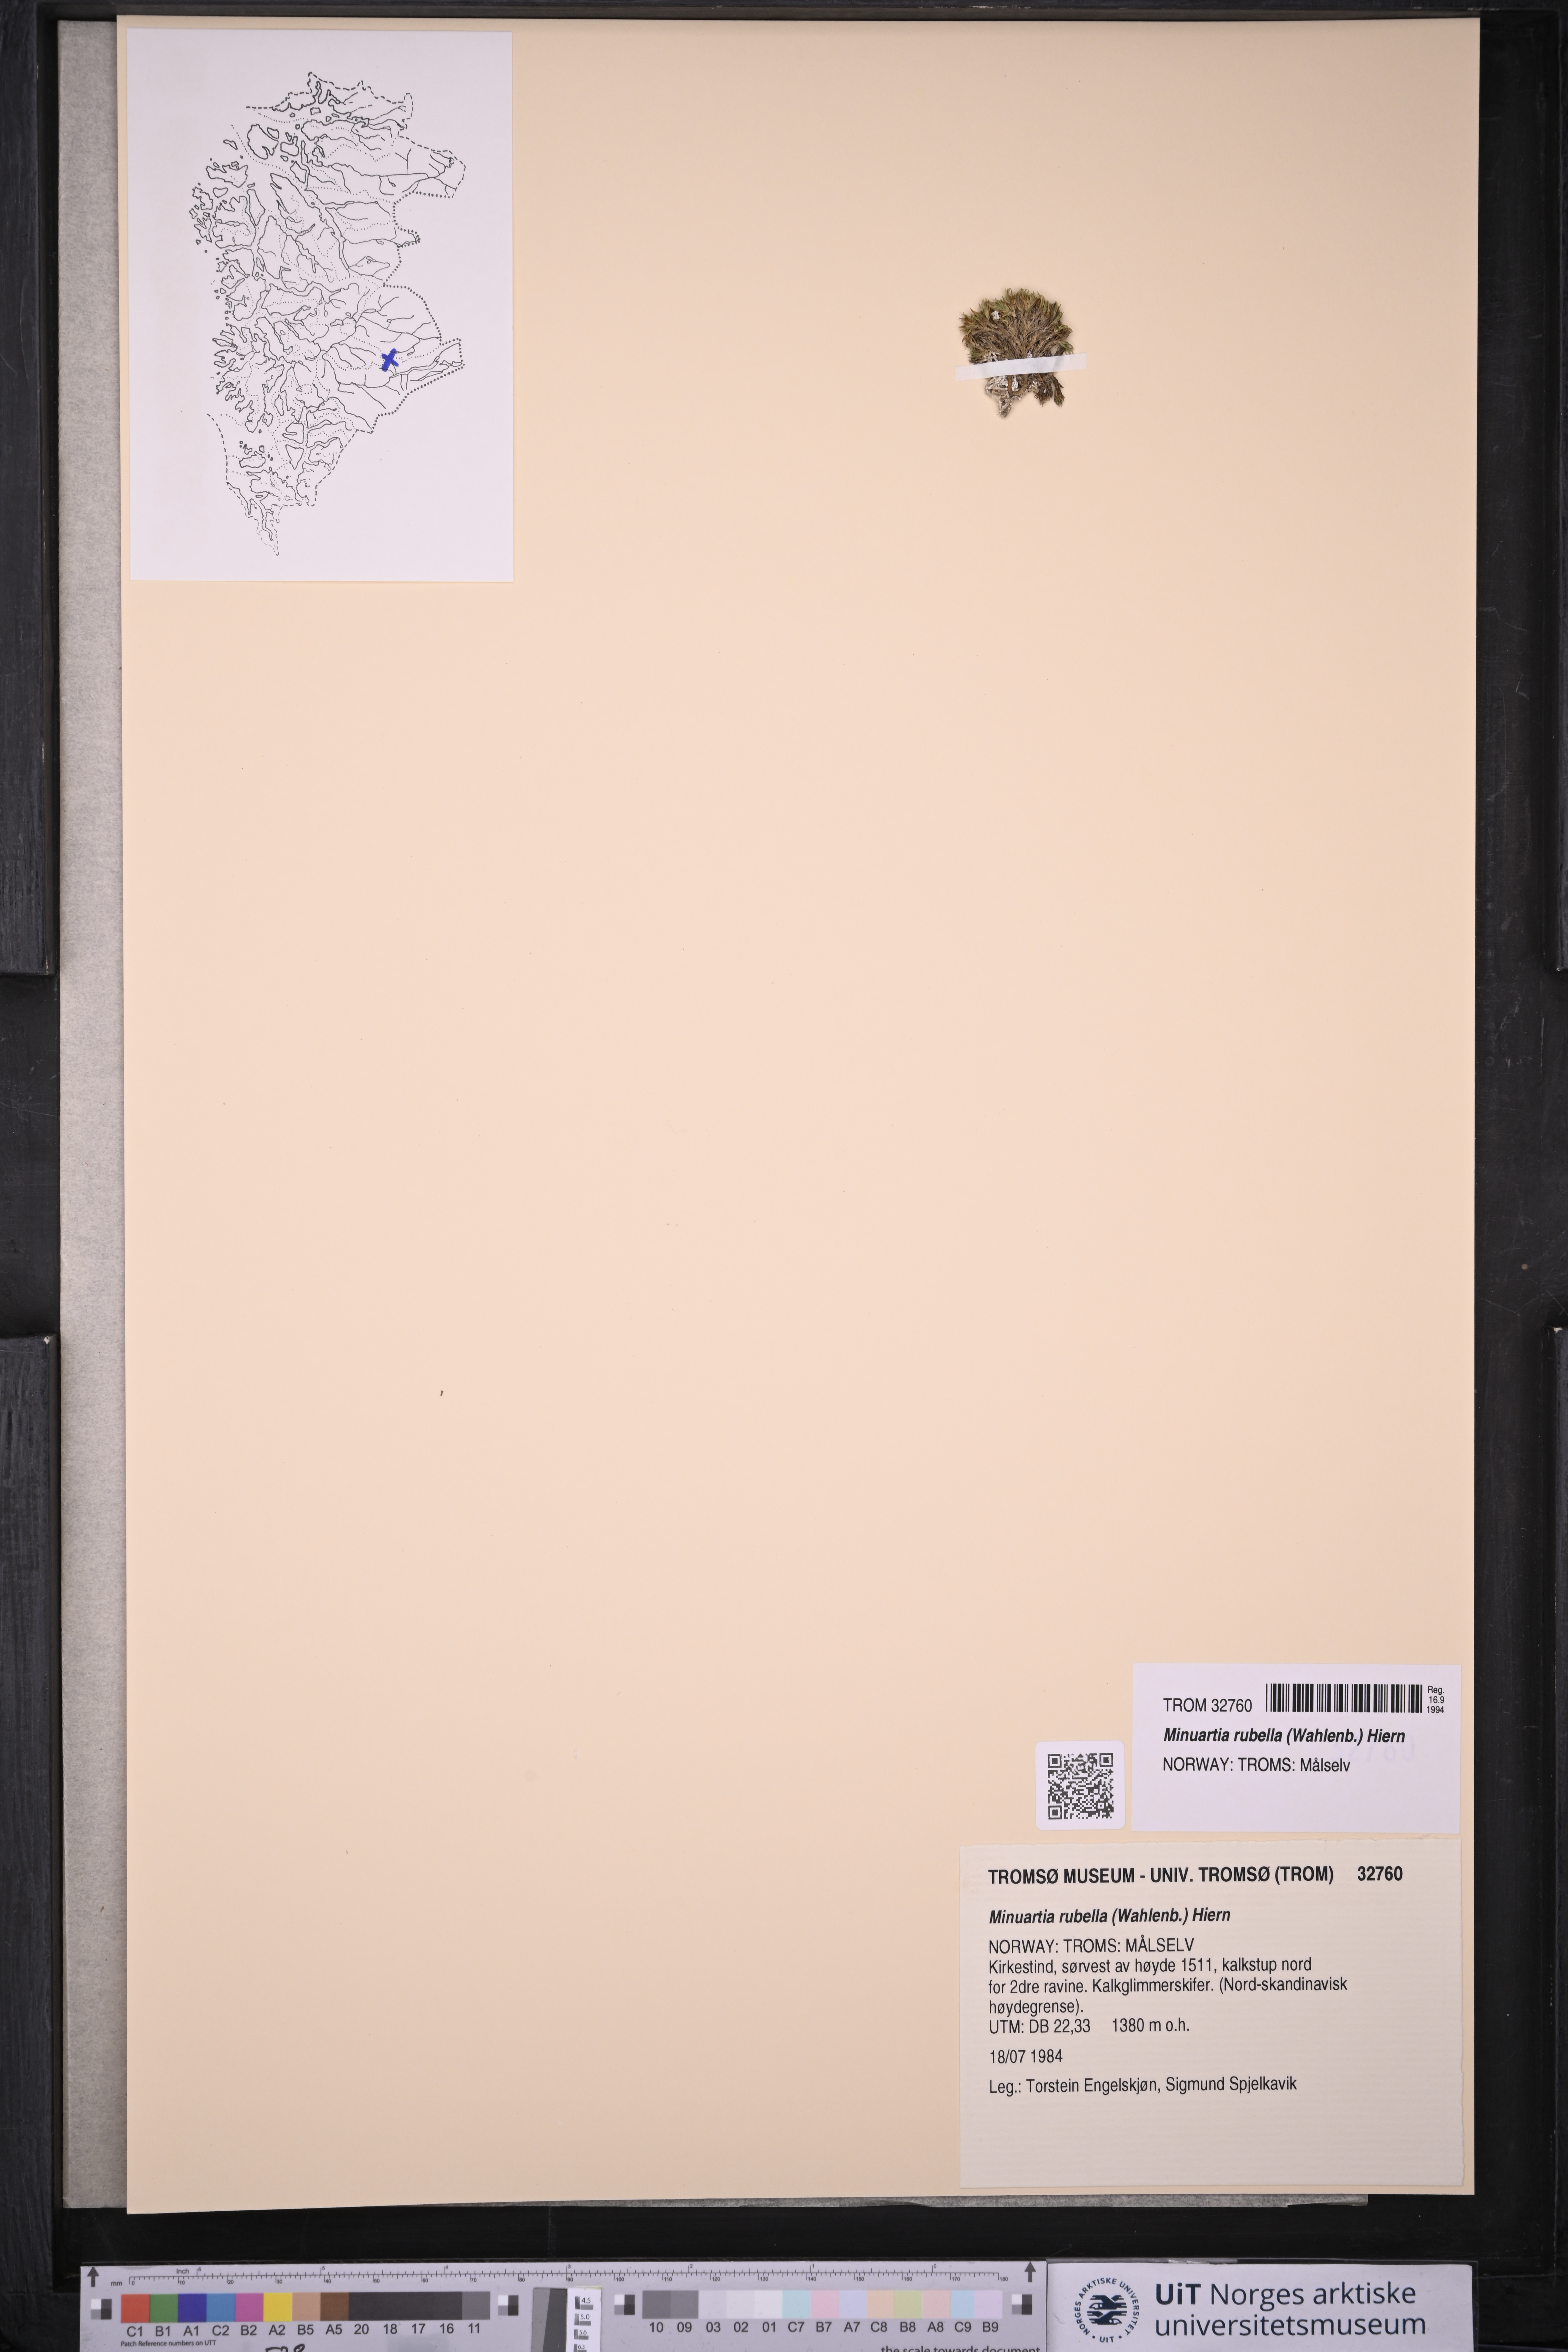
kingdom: Plantae
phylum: Tracheophyta
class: Magnoliopsida
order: Caryophyllales
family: Caryophyllaceae
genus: Sabulina
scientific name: Sabulina rubella
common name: Beautiful sandwort
